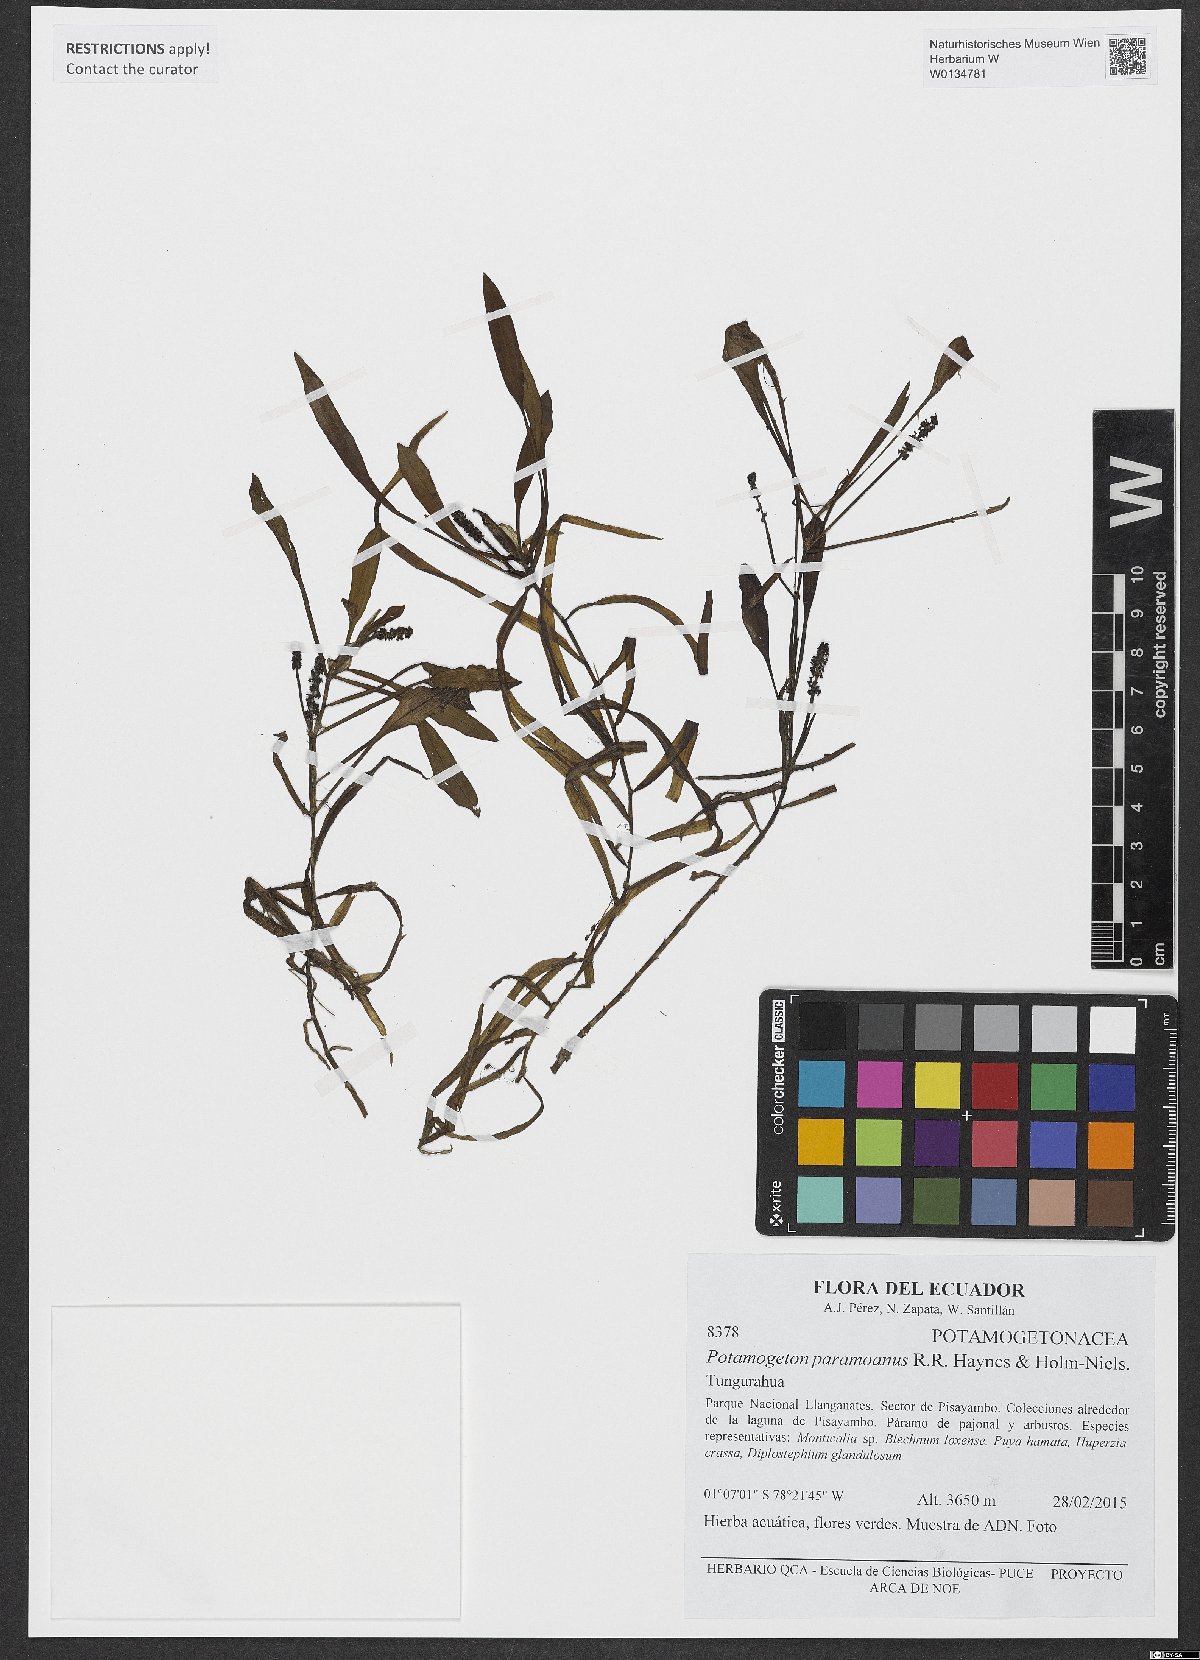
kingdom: Plantae
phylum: Tracheophyta
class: Liliopsida
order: Alismatales
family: Potamogetonaceae
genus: Potamogeton
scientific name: Potamogeton paramoanus
